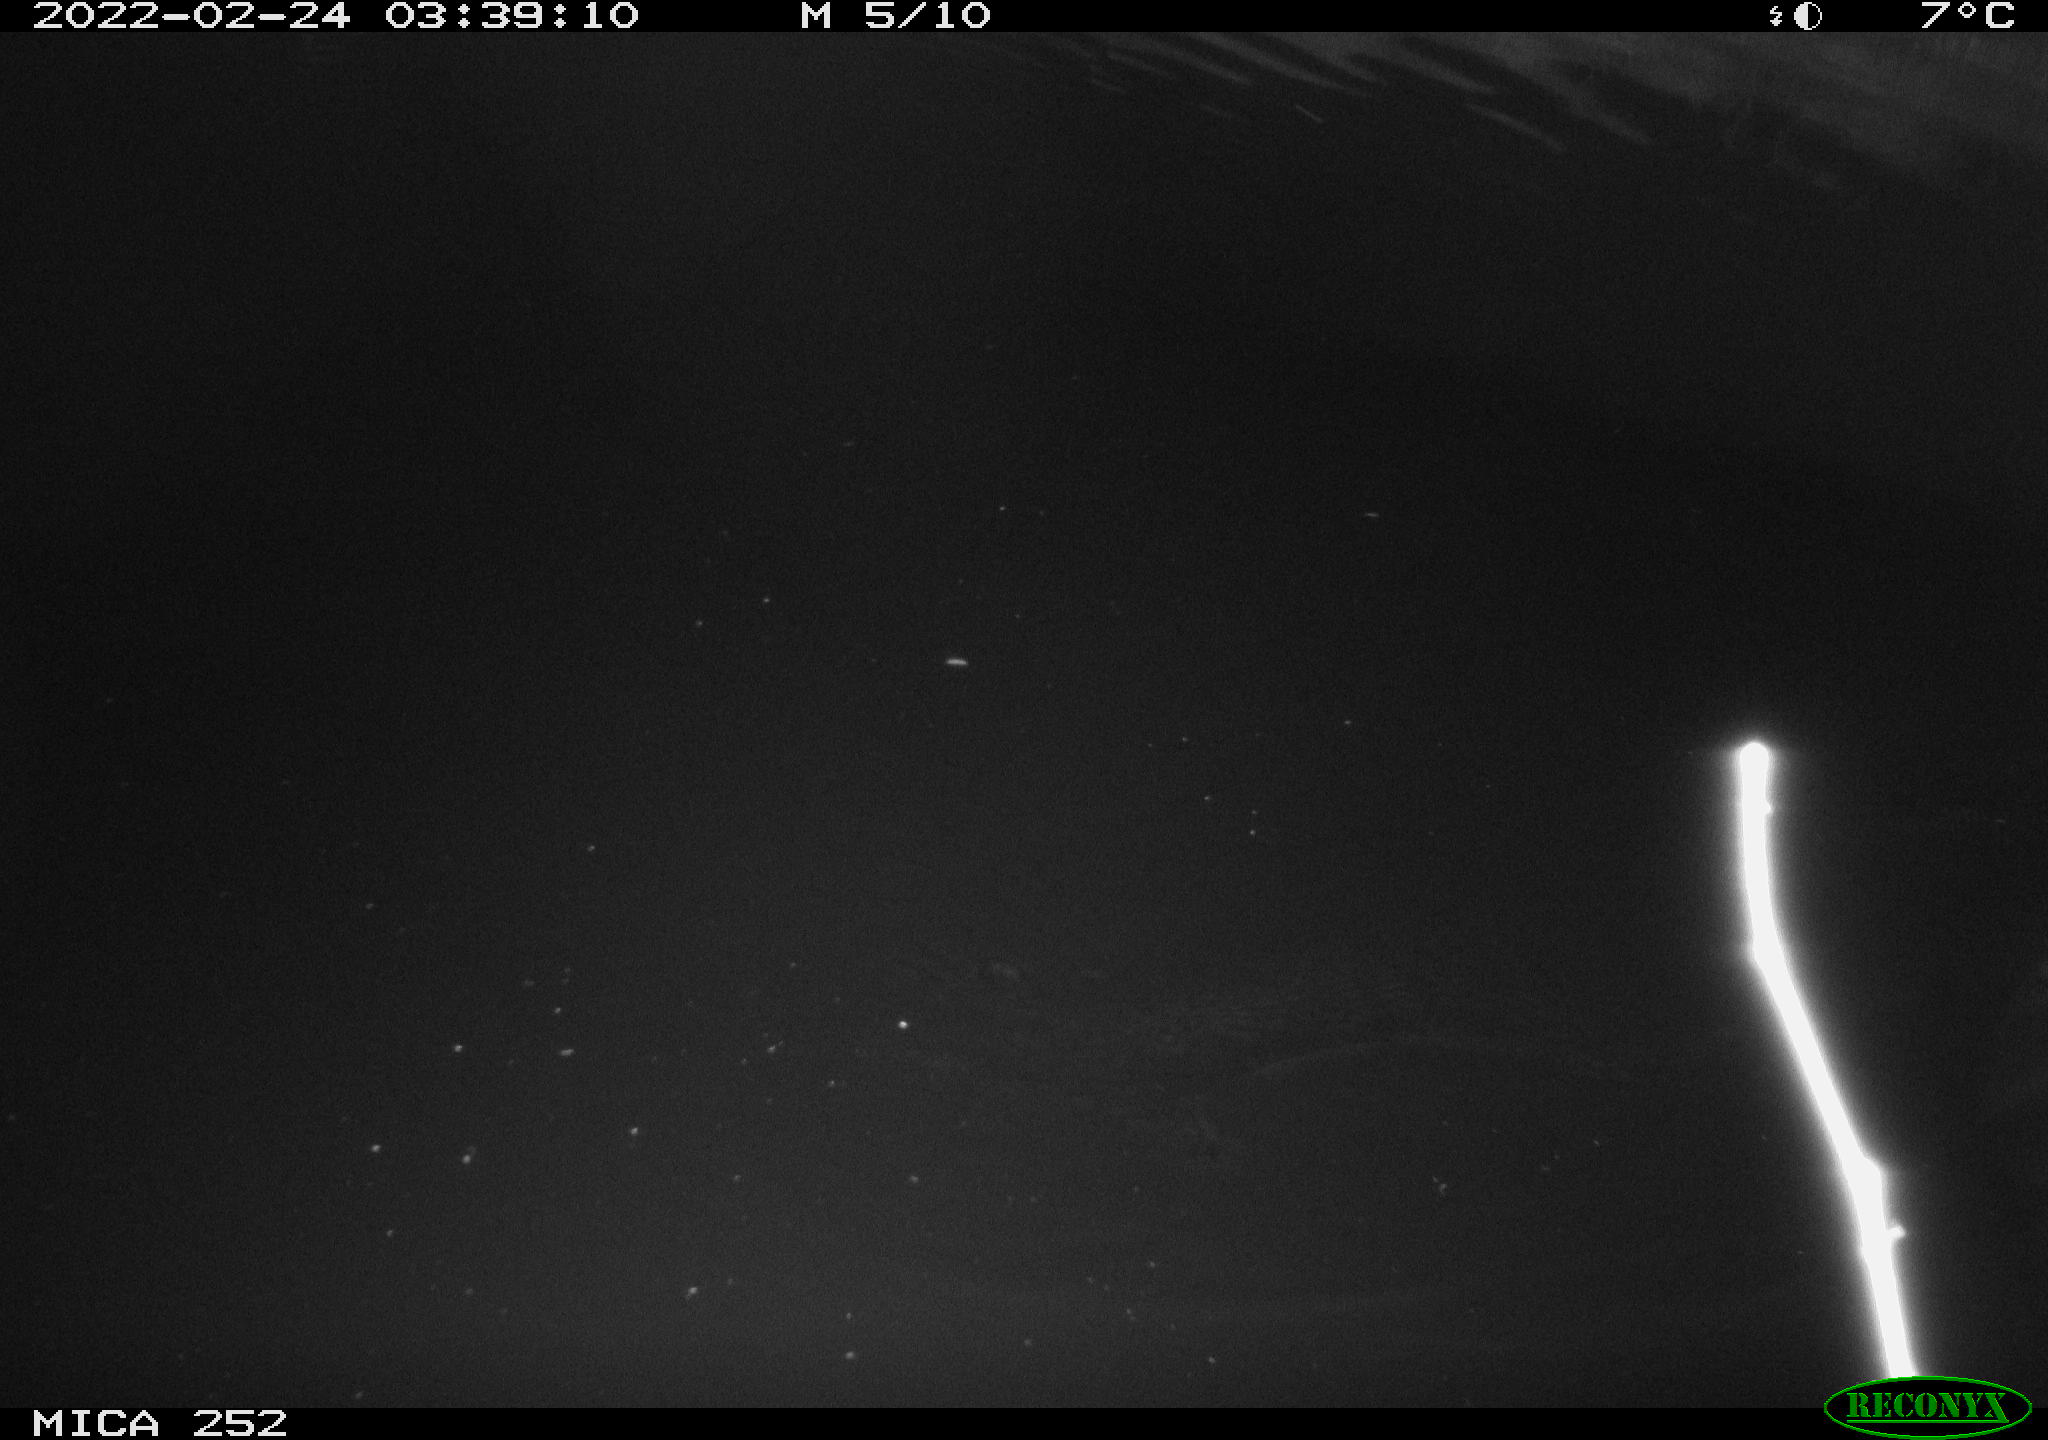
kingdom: Animalia
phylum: Chordata
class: Mammalia
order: Rodentia
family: Castoridae
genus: Castor
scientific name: Castor fiber
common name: Eurasian beaver
